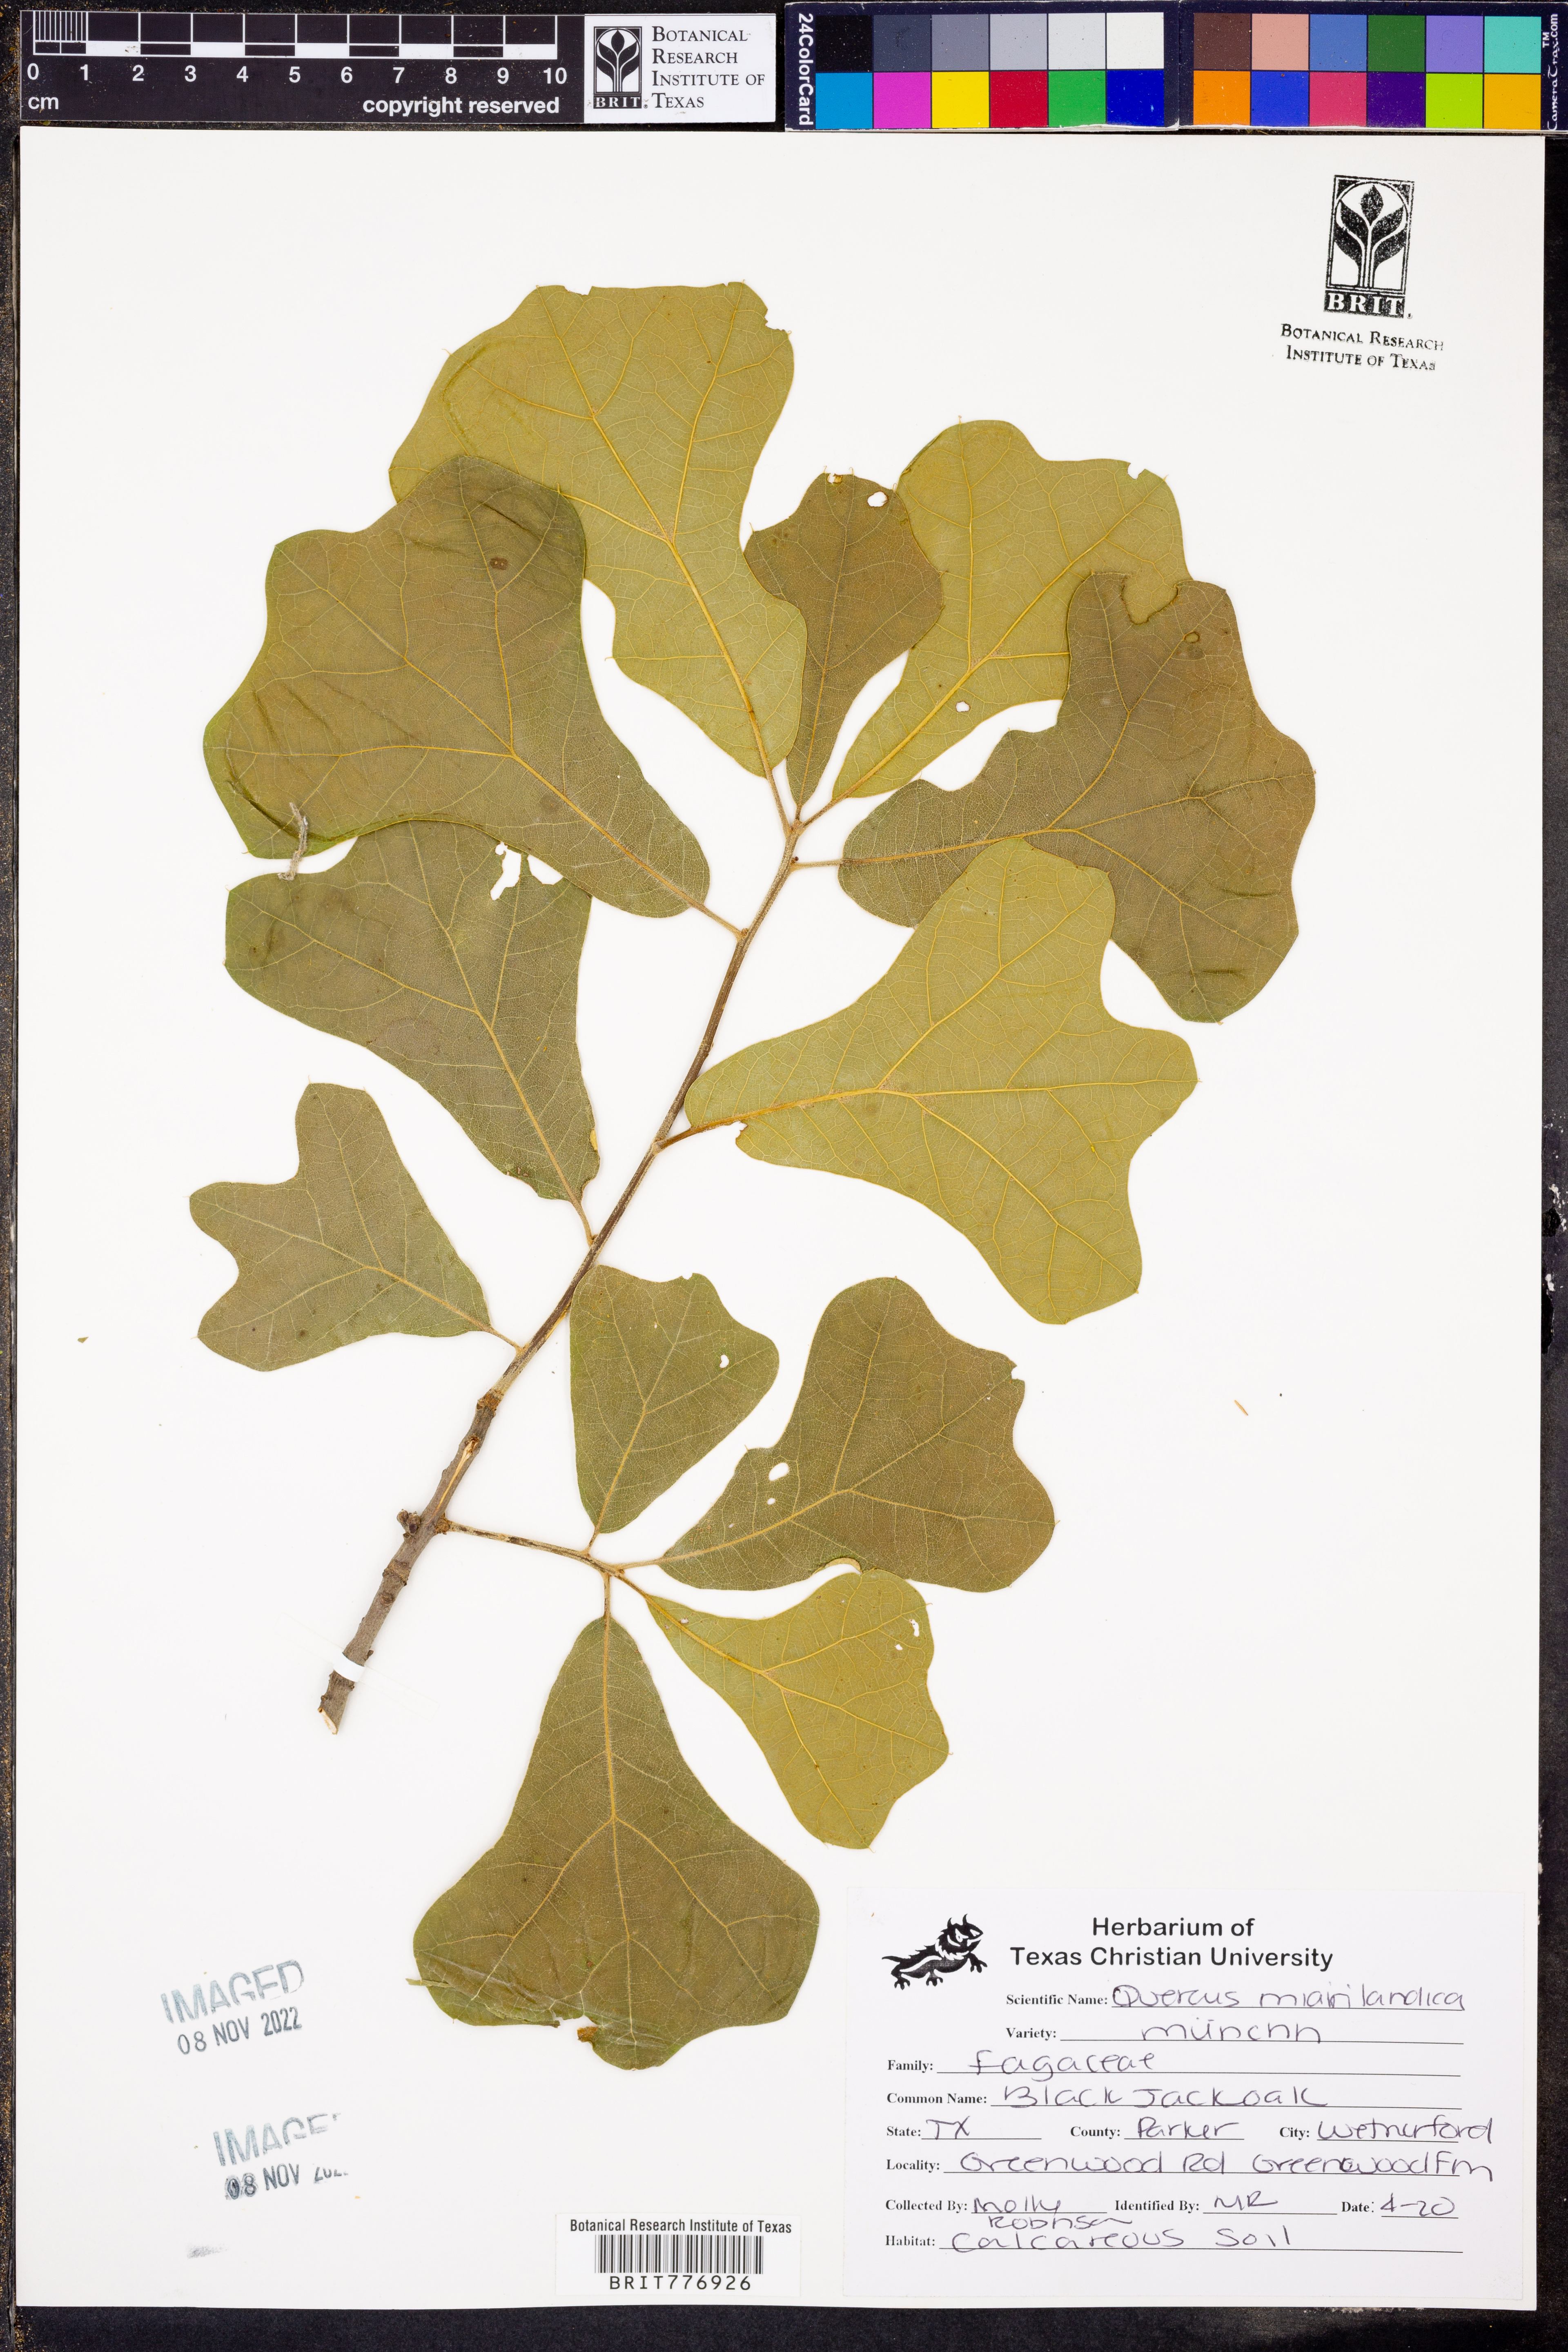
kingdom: Plantae
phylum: Tracheophyta
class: Magnoliopsida
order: Fagales
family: Fagaceae
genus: Quercus
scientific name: Quercus marilandica
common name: Blackjack oak
